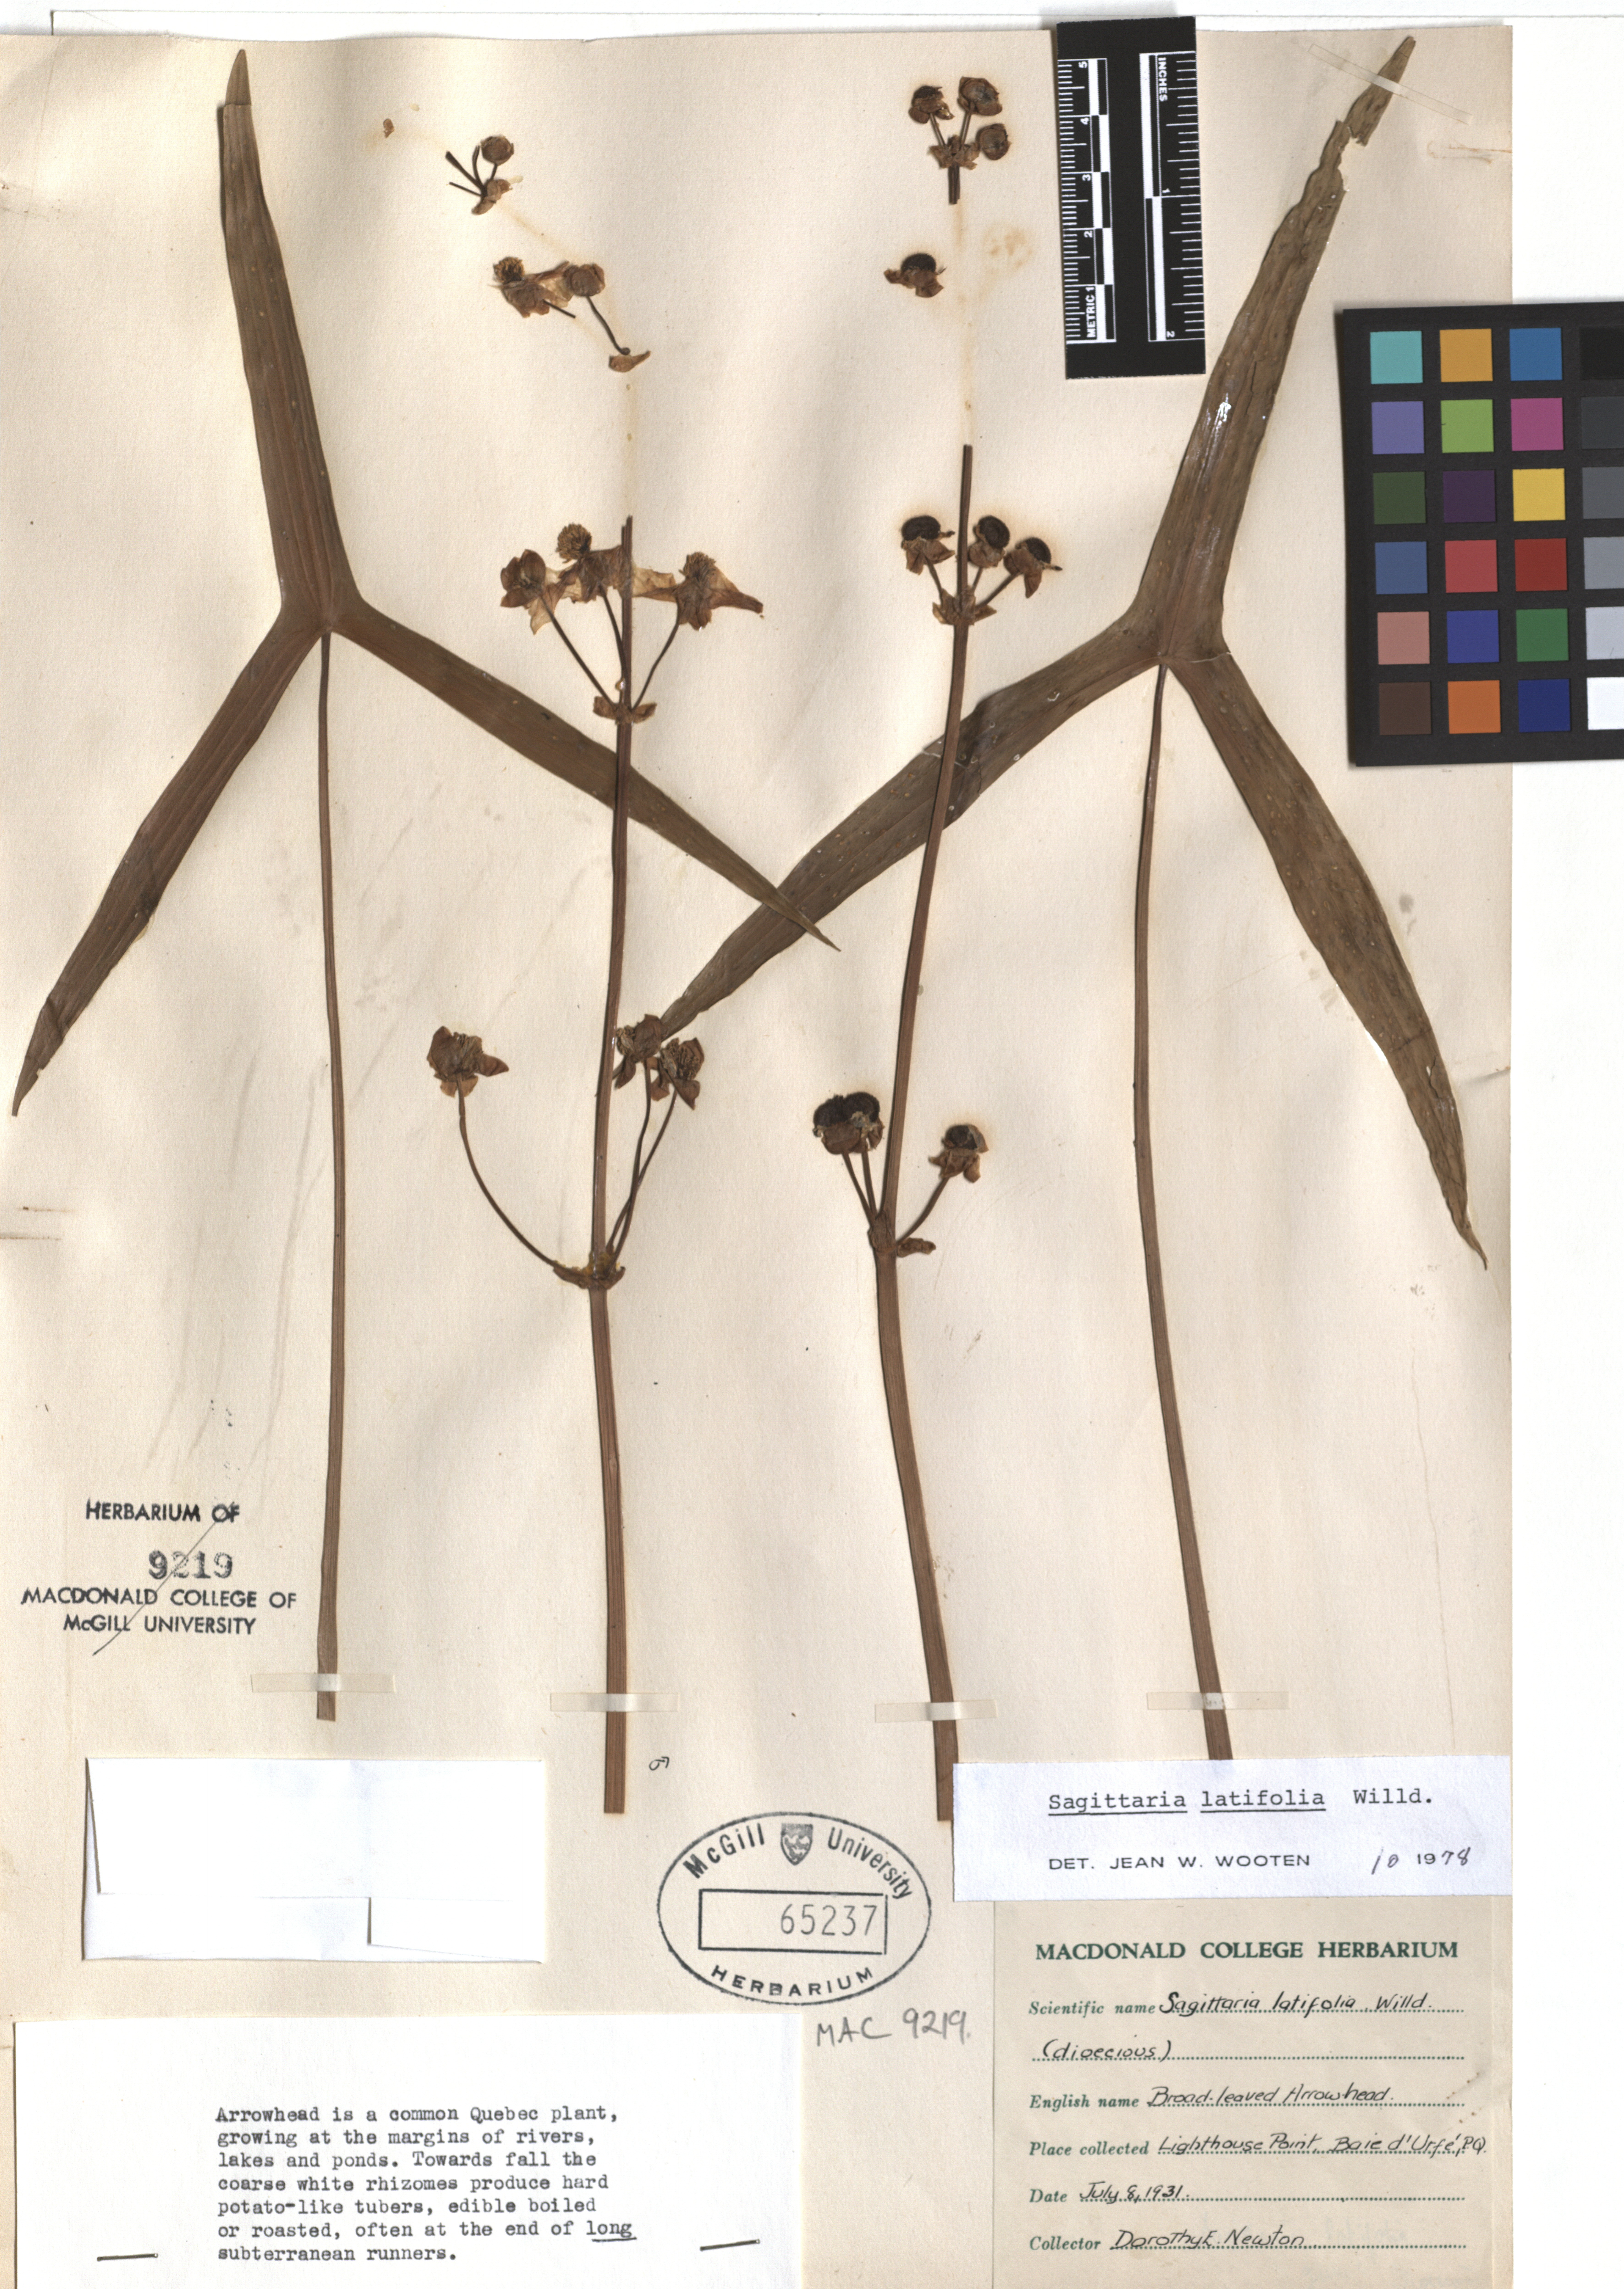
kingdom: Plantae
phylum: Tracheophyta
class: Liliopsida
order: Alismatales
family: Alismataceae
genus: Sagittaria
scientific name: Sagittaria latifolia
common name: Duck-potato
